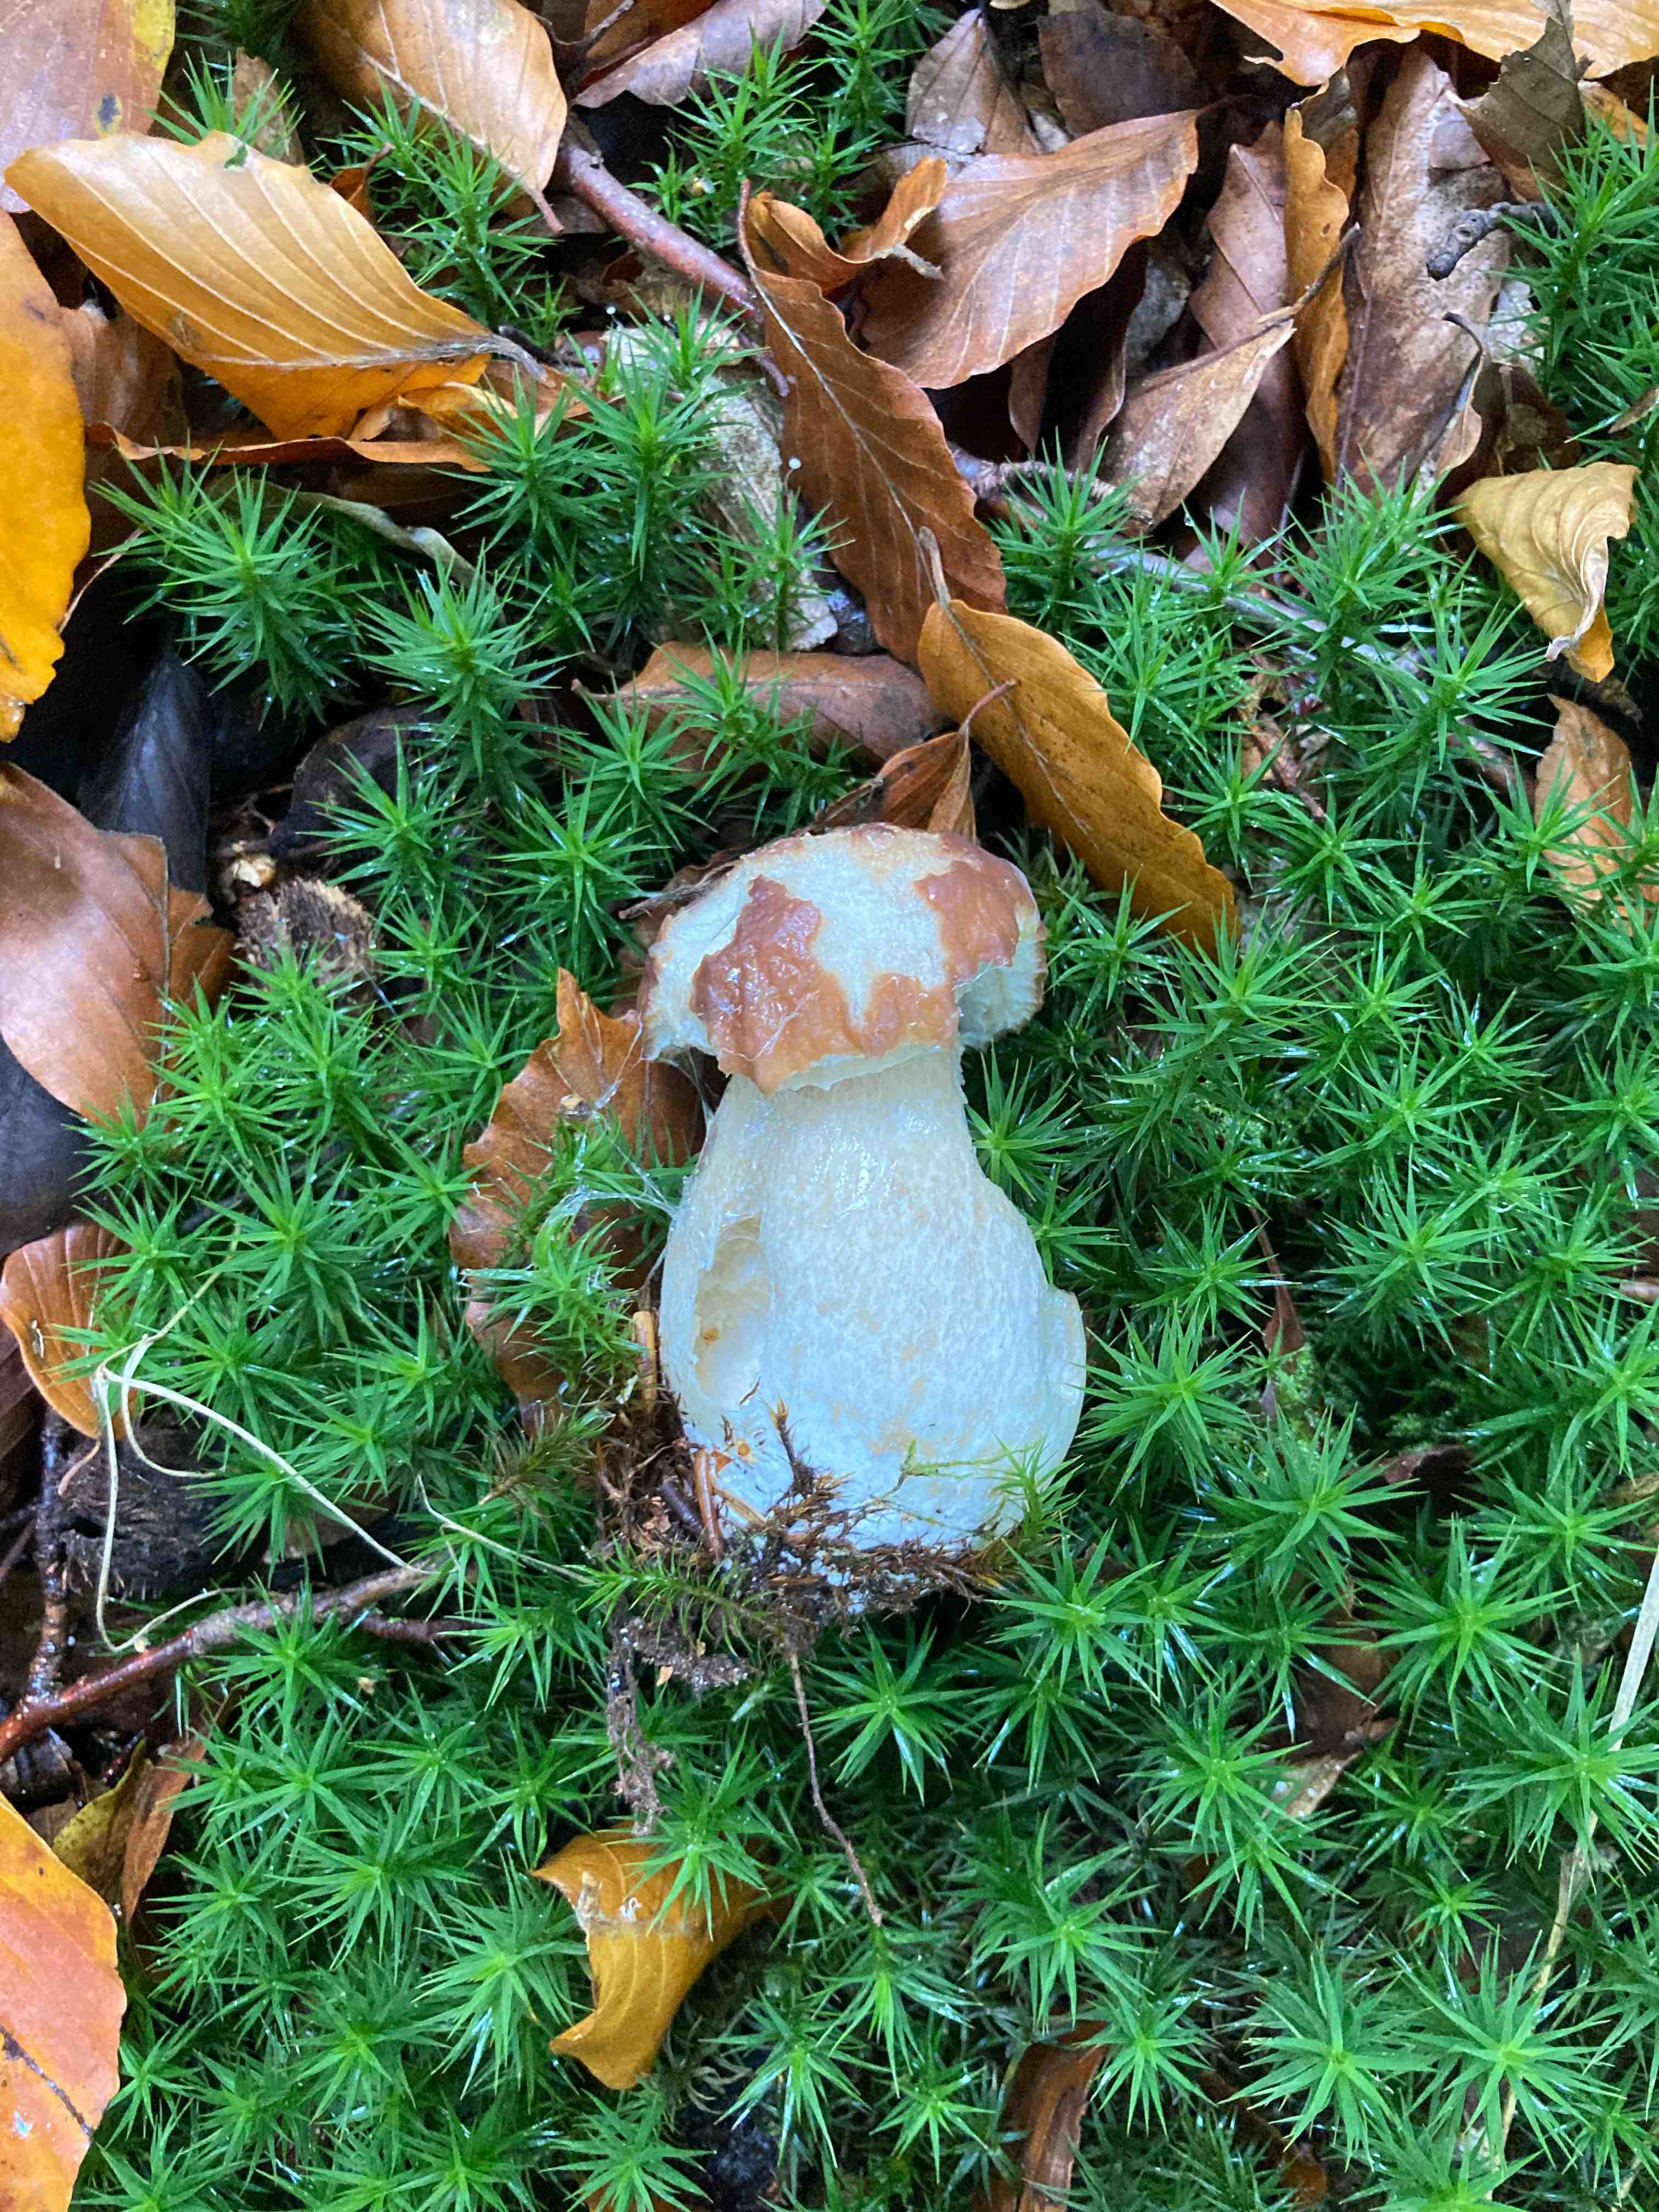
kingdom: Fungi
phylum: Basidiomycota
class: Agaricomycetes
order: Boletales
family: Boletaceae
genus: Boletus
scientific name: Boletus edulis
